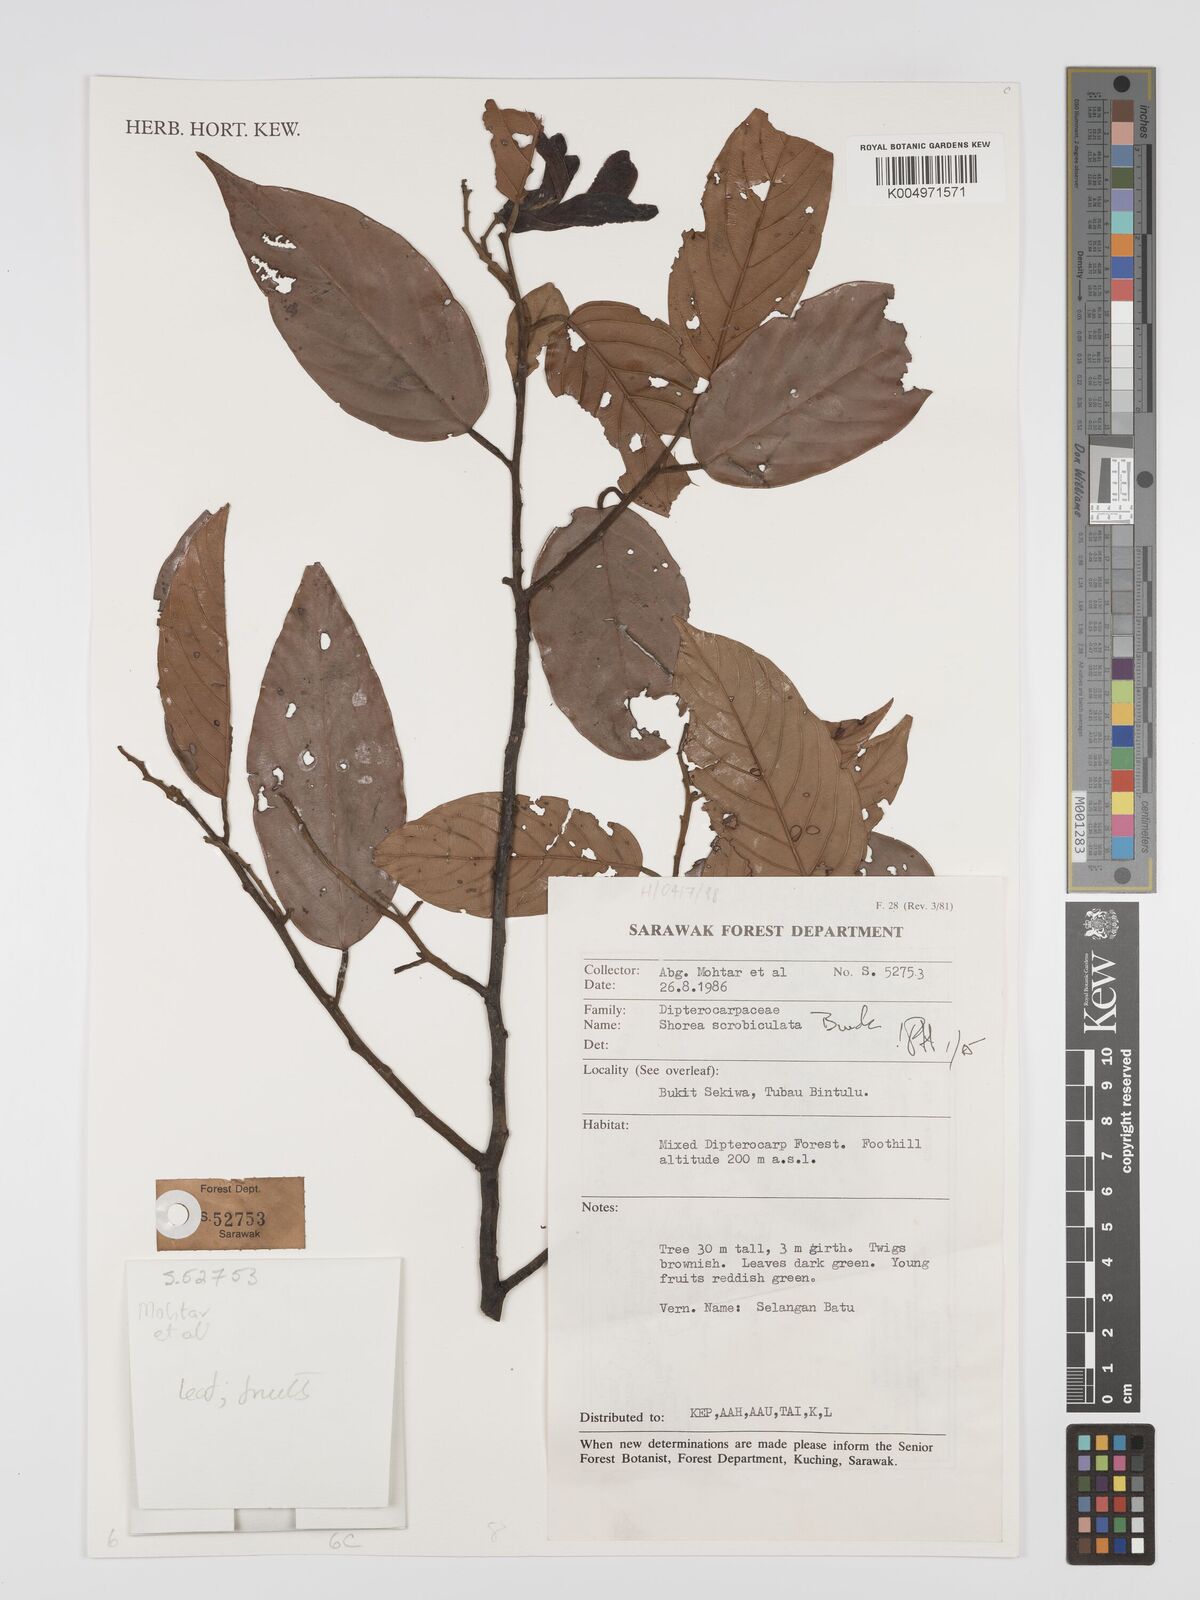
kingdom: Plantae
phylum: Tracheophyta
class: Magnoliopsida
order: Malvales
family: Dipterocarpaceae
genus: Shorea
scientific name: Shorea scrobiculata
